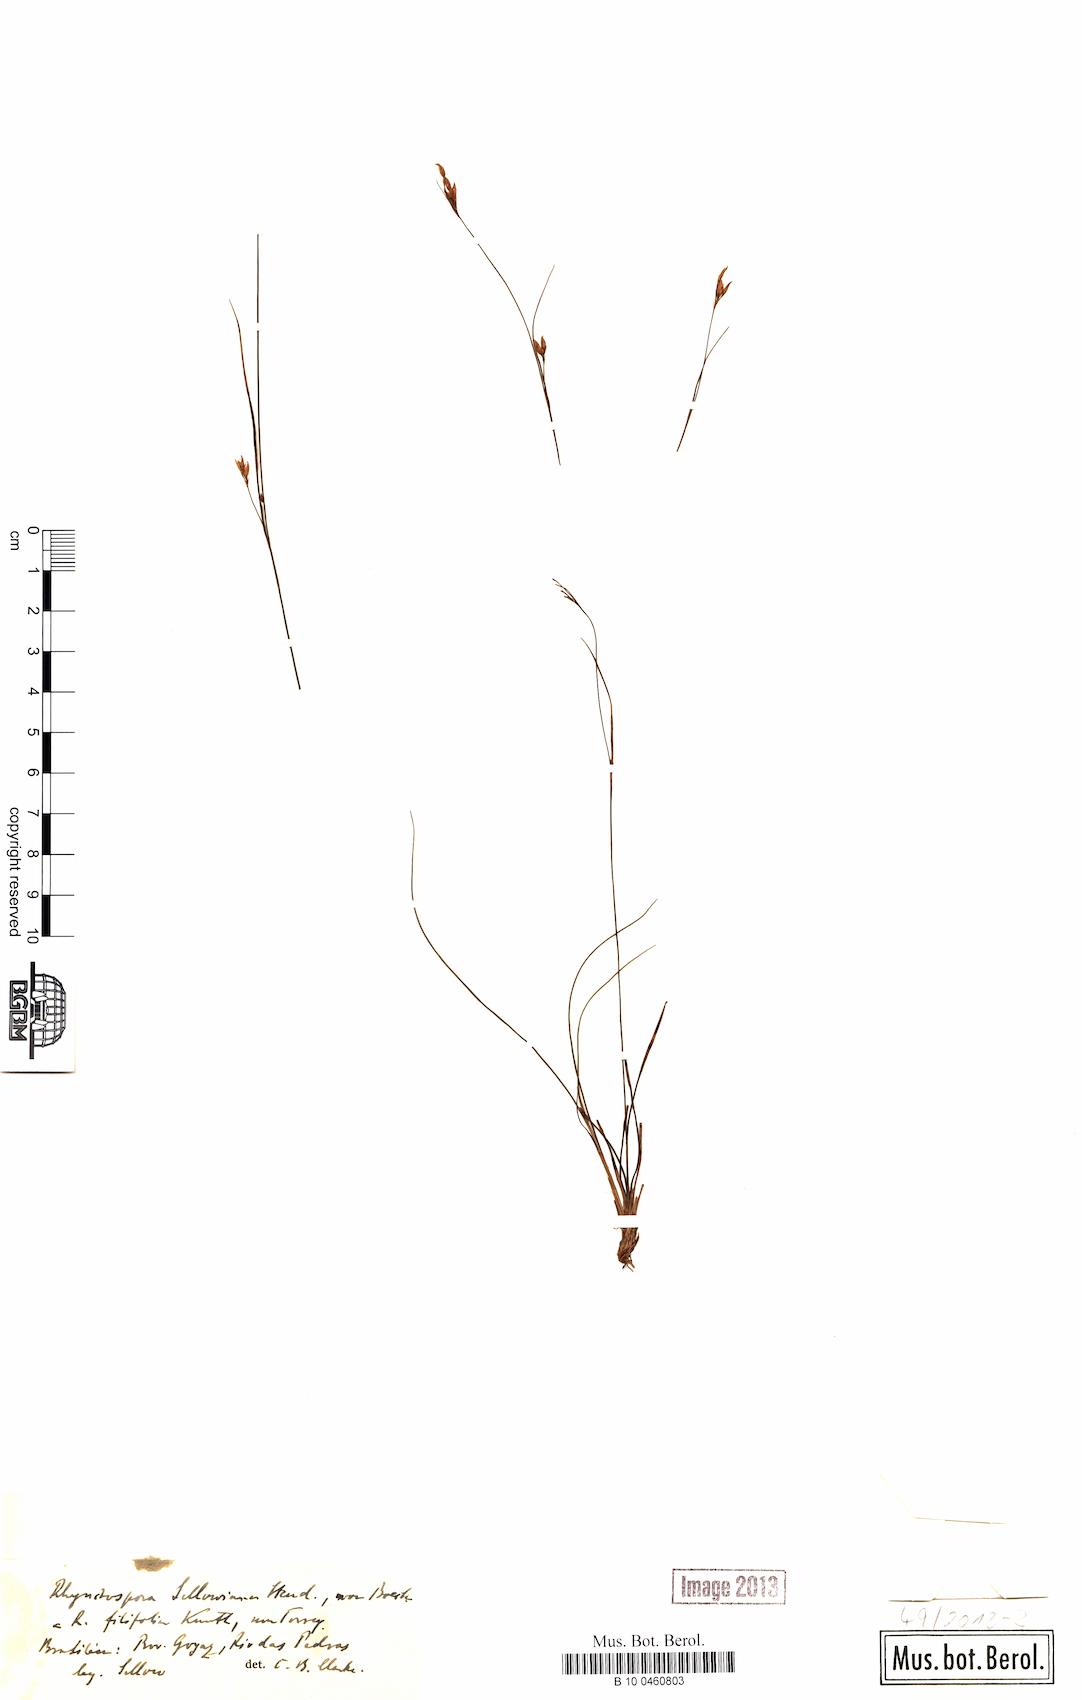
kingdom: Plantae
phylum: Tracheophyta
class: Liliopsida
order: Poales
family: Cyperaceae
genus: Rhynchospora
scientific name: Rhynchospora sellowiana
